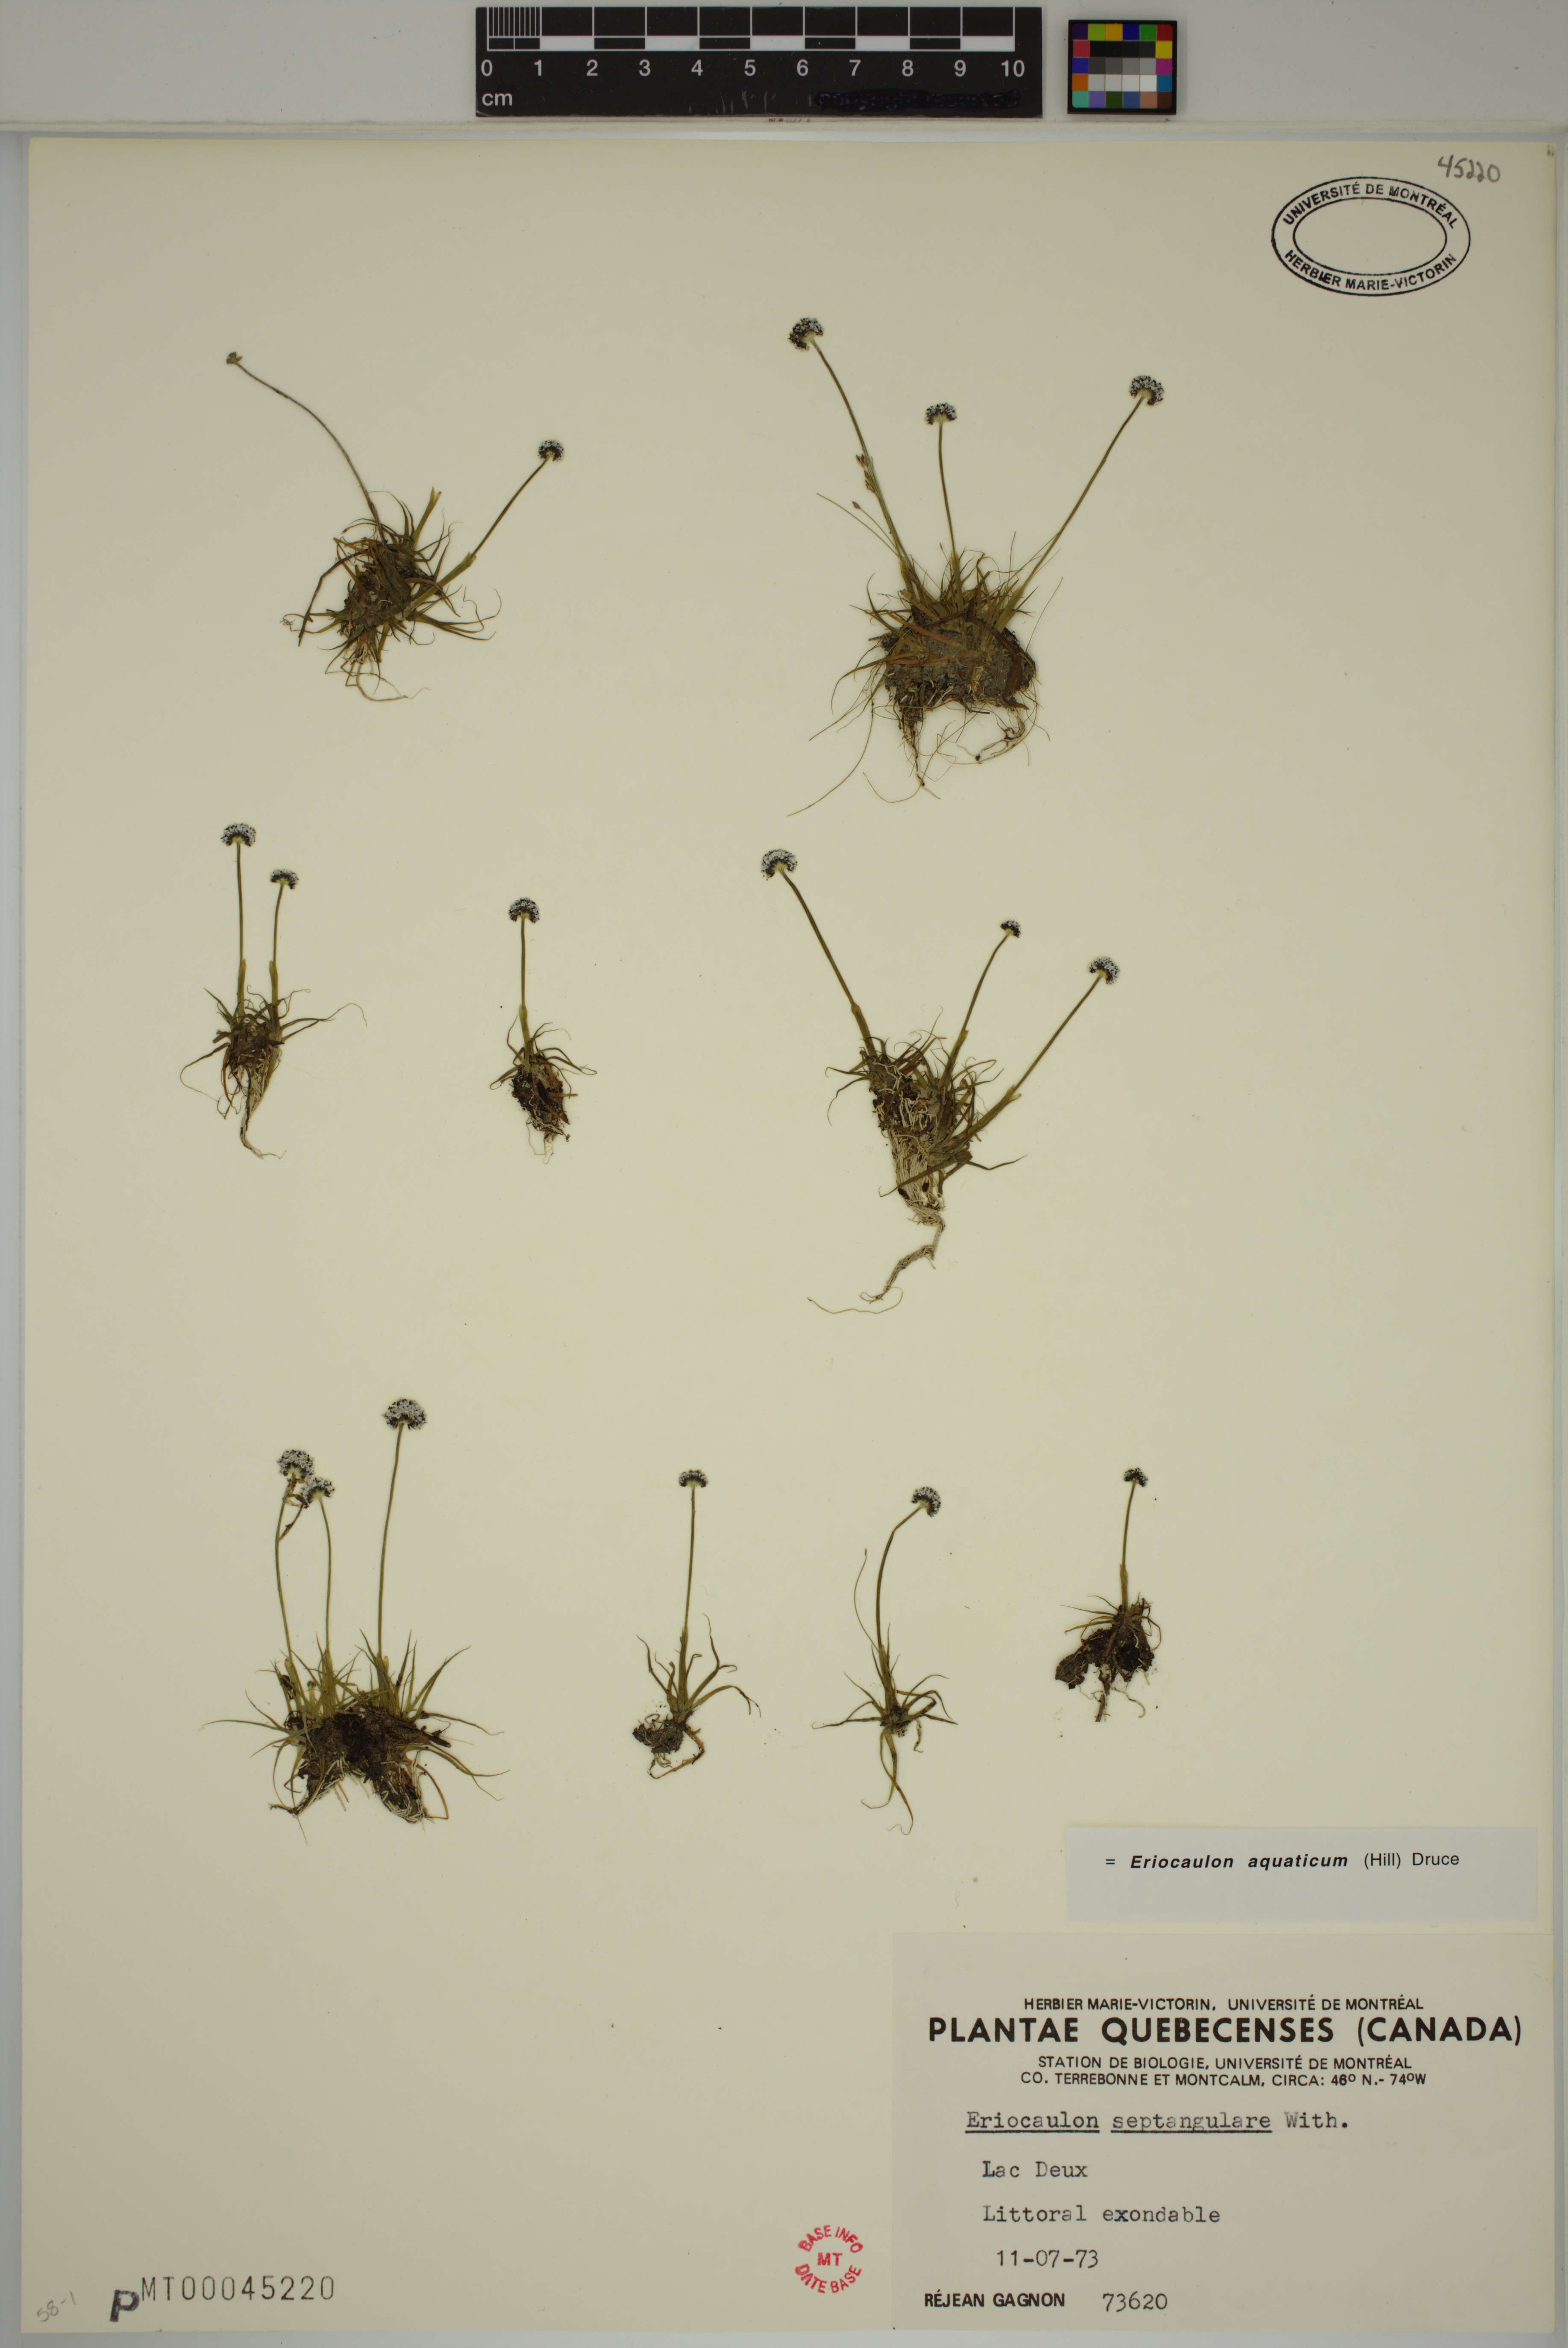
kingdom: Plantae
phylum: Tracheophyta
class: Liliopsida
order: Poales
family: Eriocaulaceae
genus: Eriocaulon
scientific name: Eriocaulon aquaticum
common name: Pipewort
